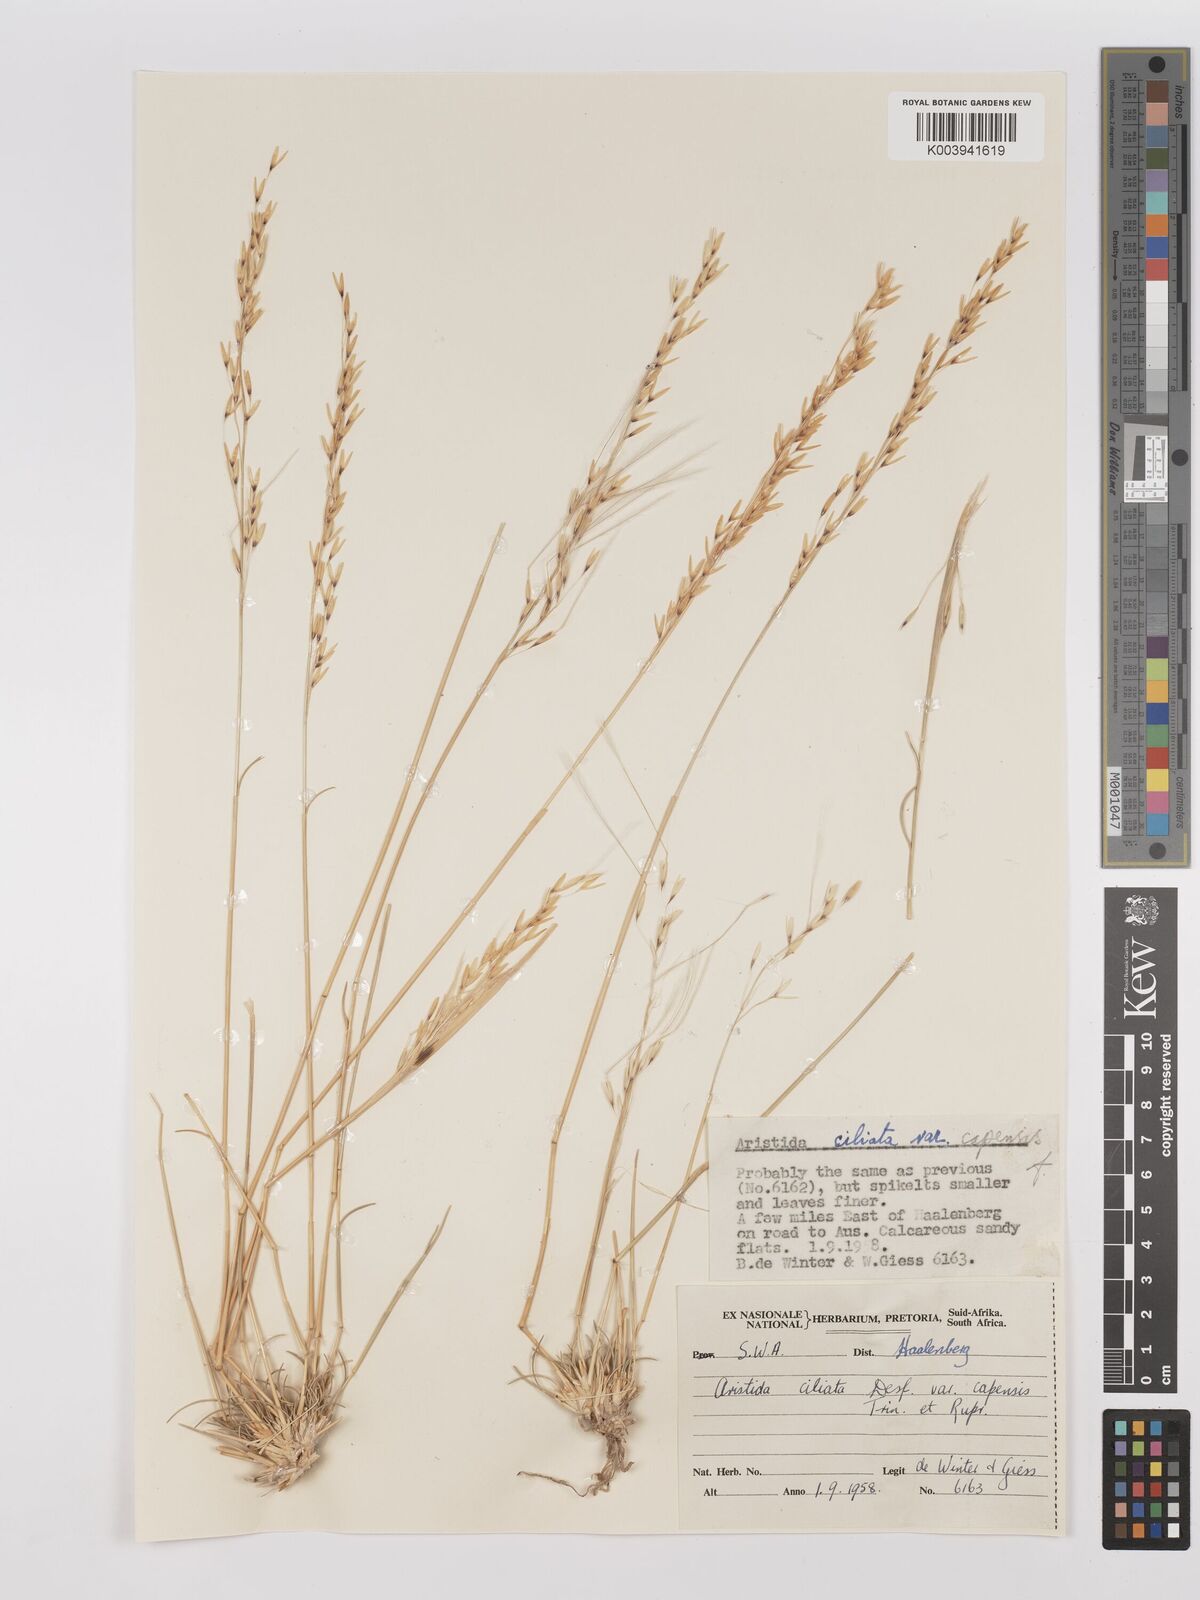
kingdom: Plantae
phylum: Tracheophyta
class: Liliopsida
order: Poales
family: Poaceae
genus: Stipagrostis
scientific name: Stipagrostis ciliata
